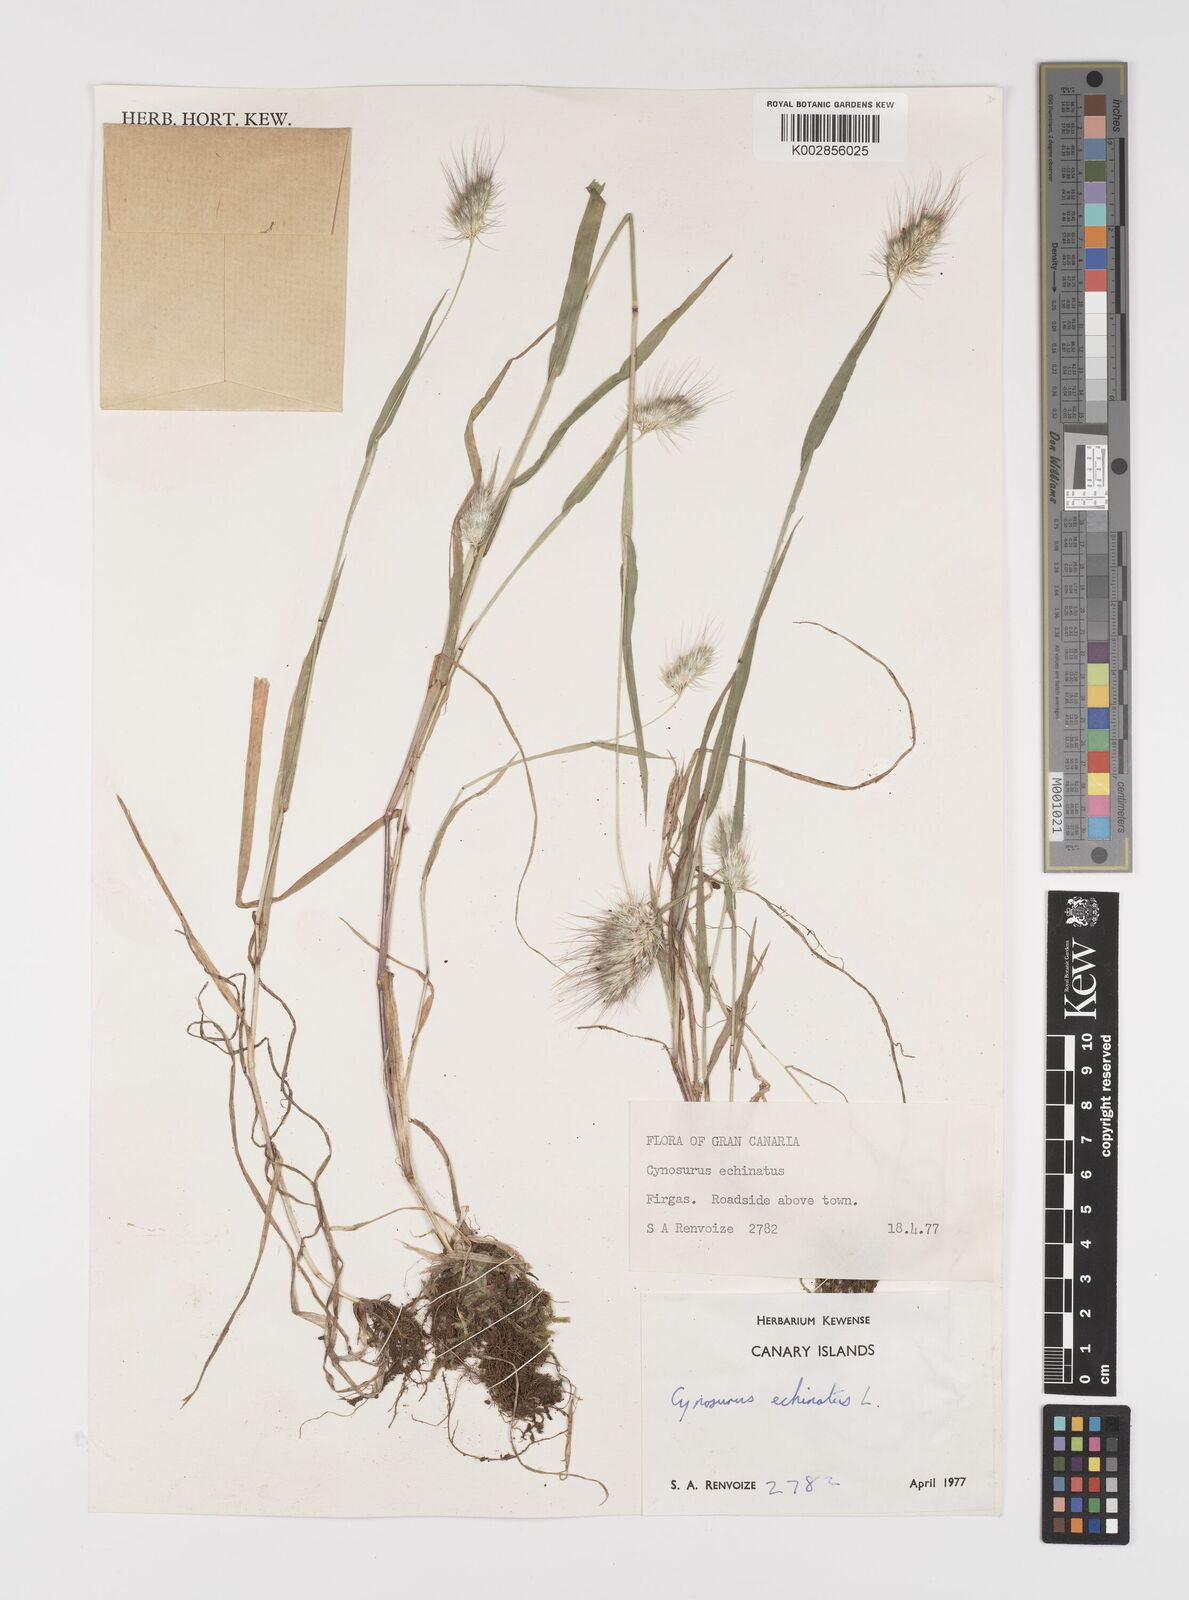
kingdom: Plantae
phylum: Tracheophyta
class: Liliopsida
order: Poales
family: Poaceae
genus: Cynosurus
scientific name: Cynosurus echinatus
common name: Rough dog's-tail
